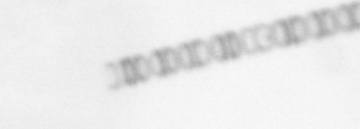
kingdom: Chromista
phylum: Ochrophyta
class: Bacillariophyceae
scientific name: Bacillariophyceae
